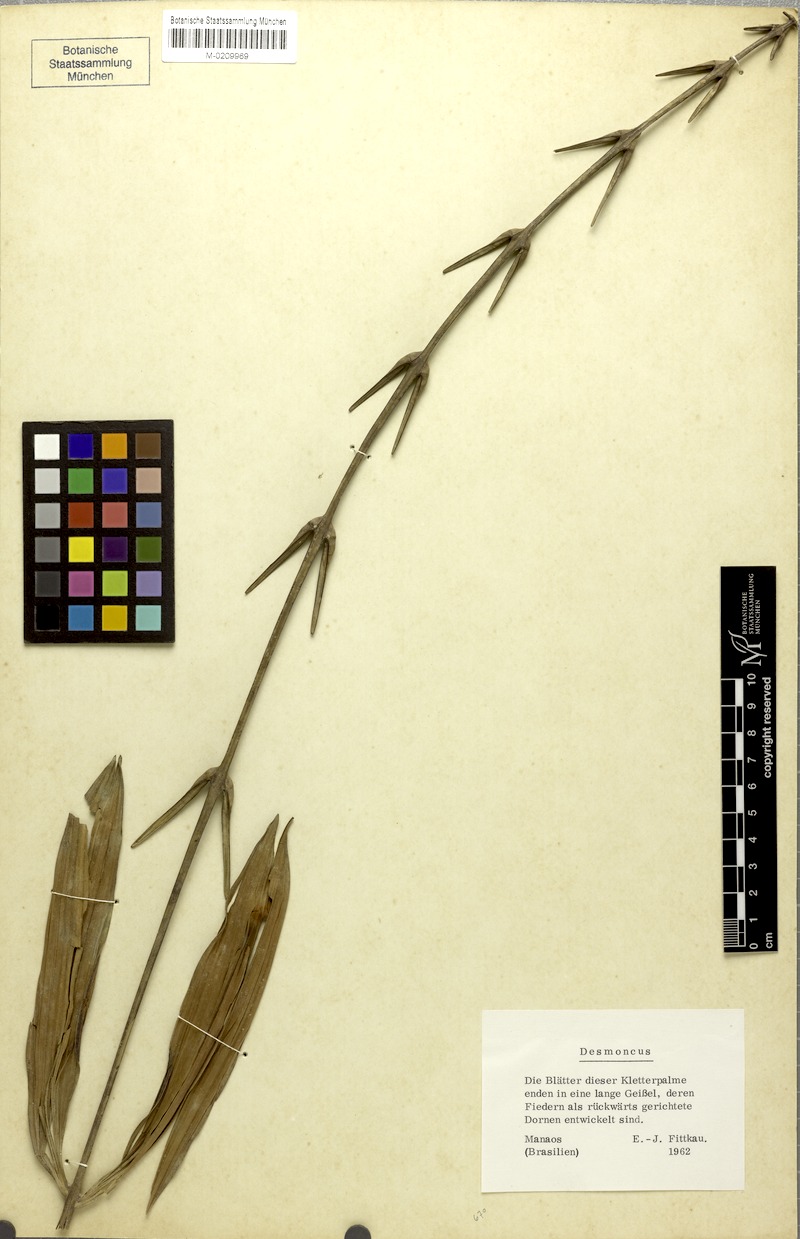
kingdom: Plantae
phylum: Tracheophyta
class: Liliopsida
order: Arecales
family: Arecaceae
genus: Desmoncus
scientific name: Desmoncus
